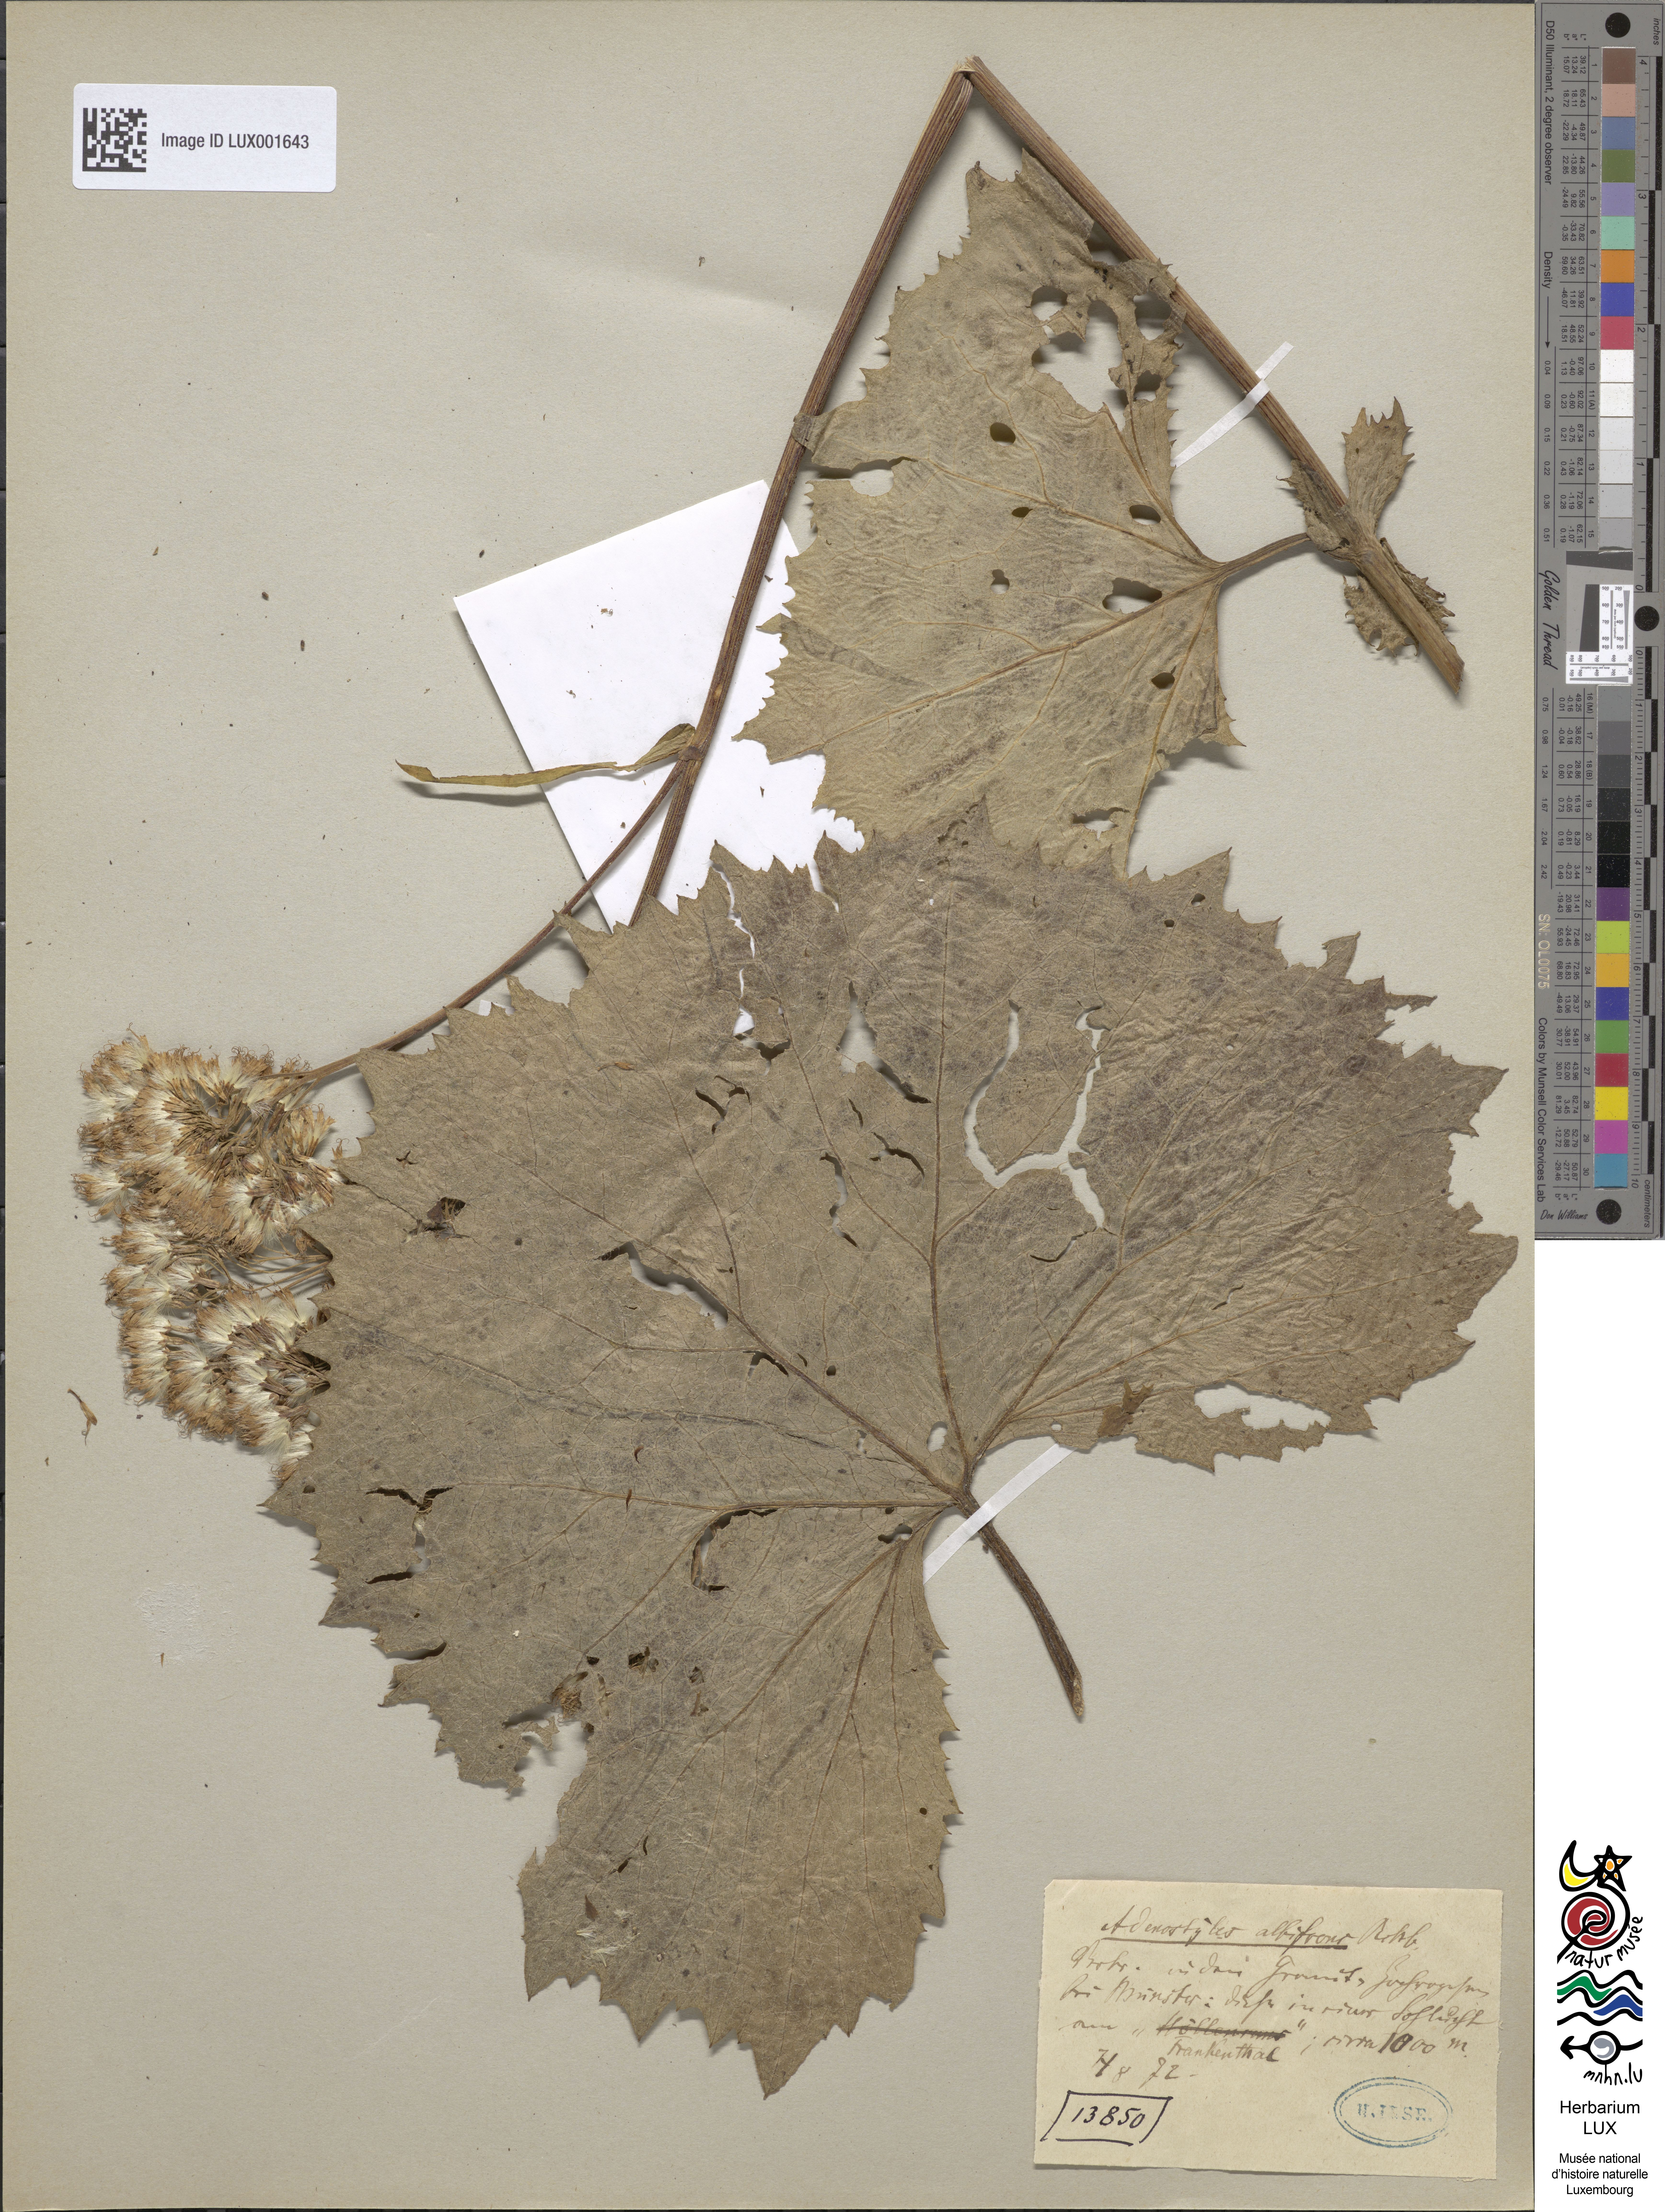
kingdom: Plantae
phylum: Tracheophyta
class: Magnoliopsida
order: Asterales
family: Asteraceae
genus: Adenostyles
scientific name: Adenostyles alliariae
